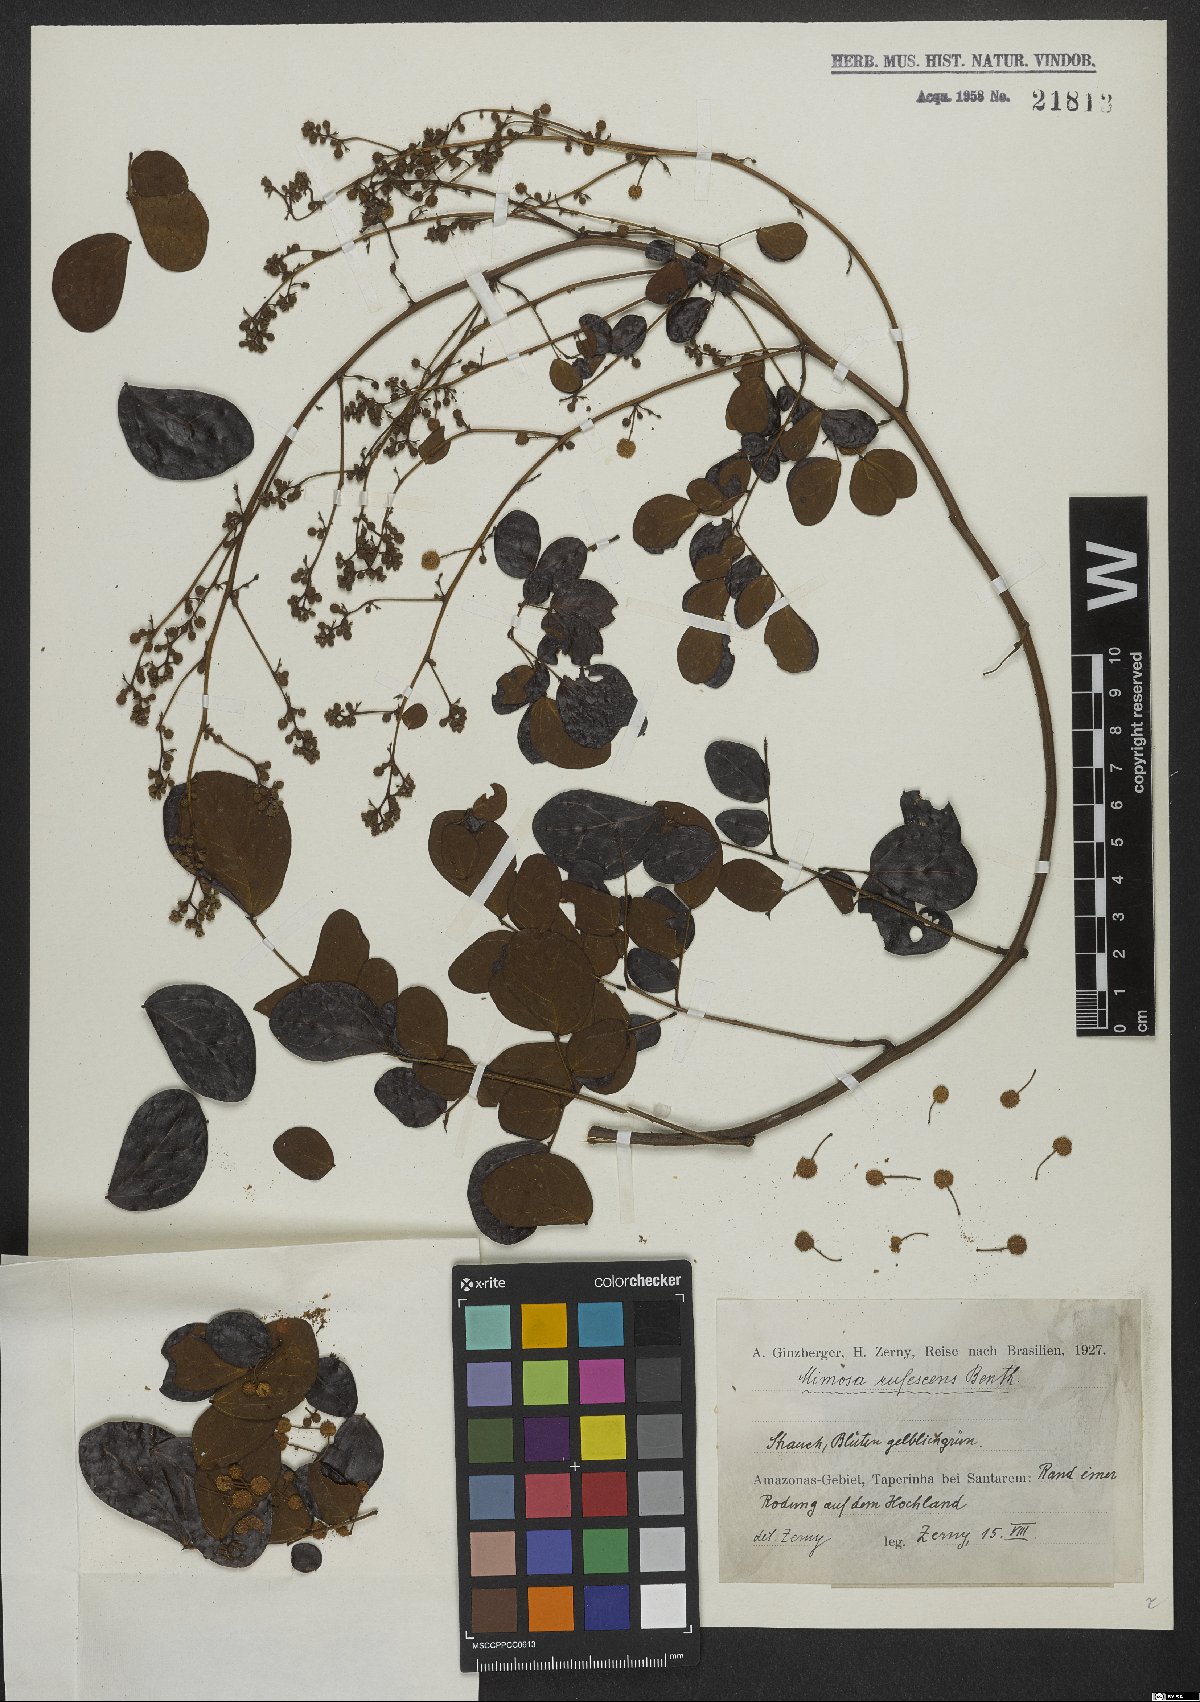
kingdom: Plantae
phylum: Tracheophyta
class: Magnoliopsida
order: Fabales
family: Fabaceae
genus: Mimosa
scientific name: Mimosa rufescens
